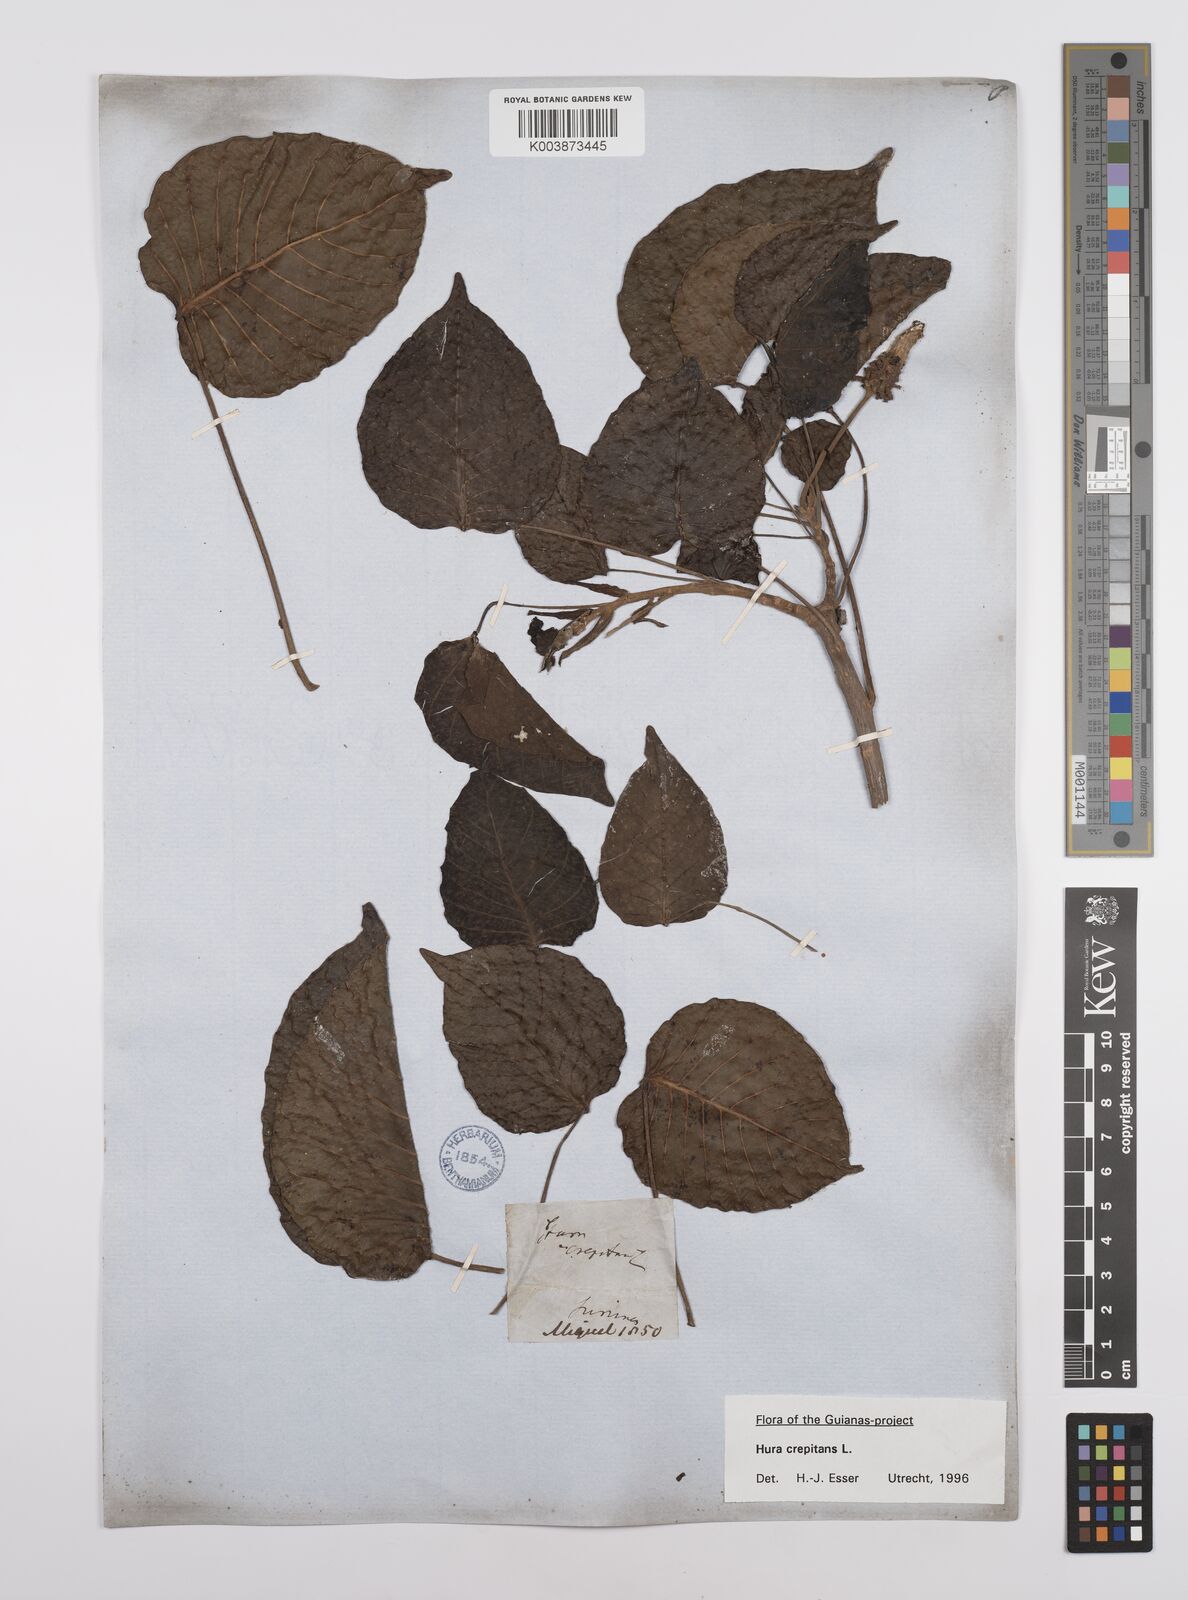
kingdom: Plantae
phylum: Tracheophyta
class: Magnoliopsida
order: Malpighiales
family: Euphorbiaceae
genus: Hura
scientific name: Hura crepitans
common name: Sandboxtree
